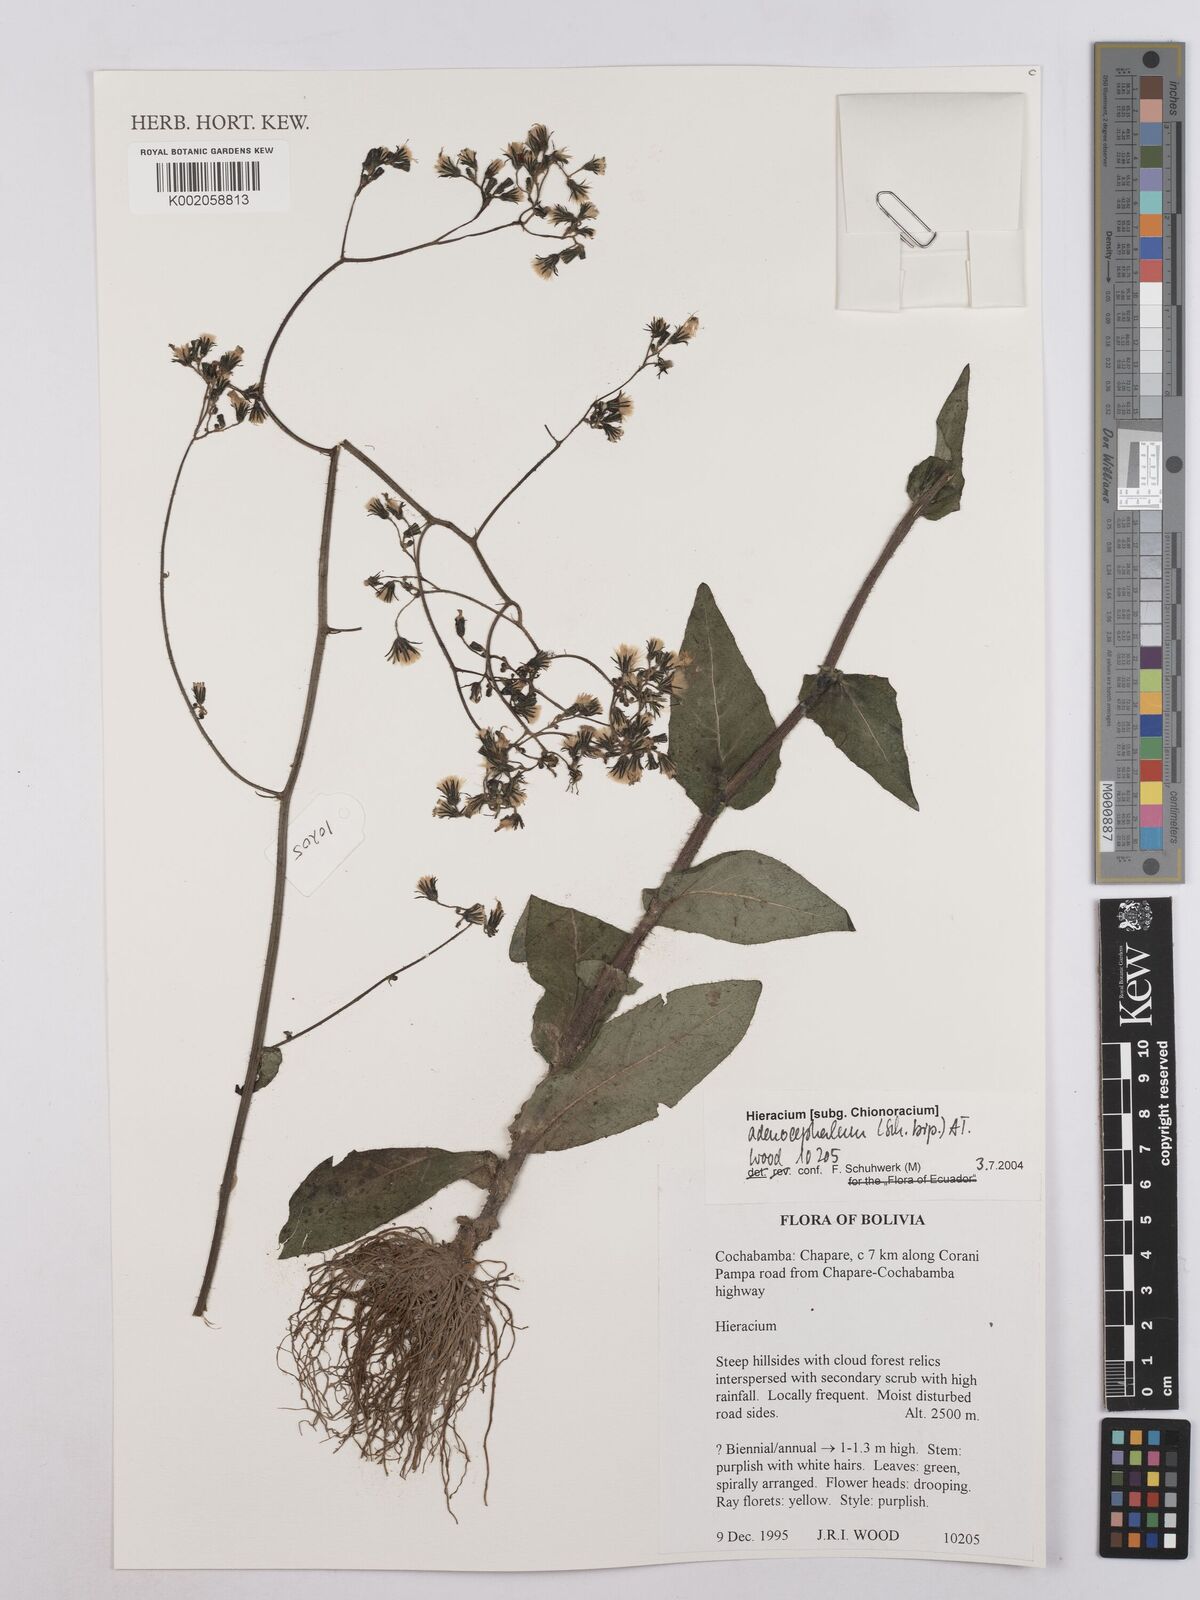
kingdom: Plantae
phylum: Tracheophyta
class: Magnoliopsida
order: Asterales
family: Asteraceae
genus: Hieracium
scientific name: Hieracium
